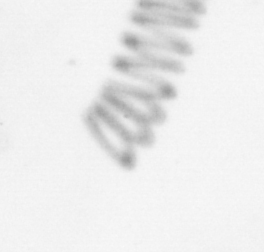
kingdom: Chromista
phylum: Ochrophyta
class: Bacillariophyceae
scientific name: Bacillariophyceae
